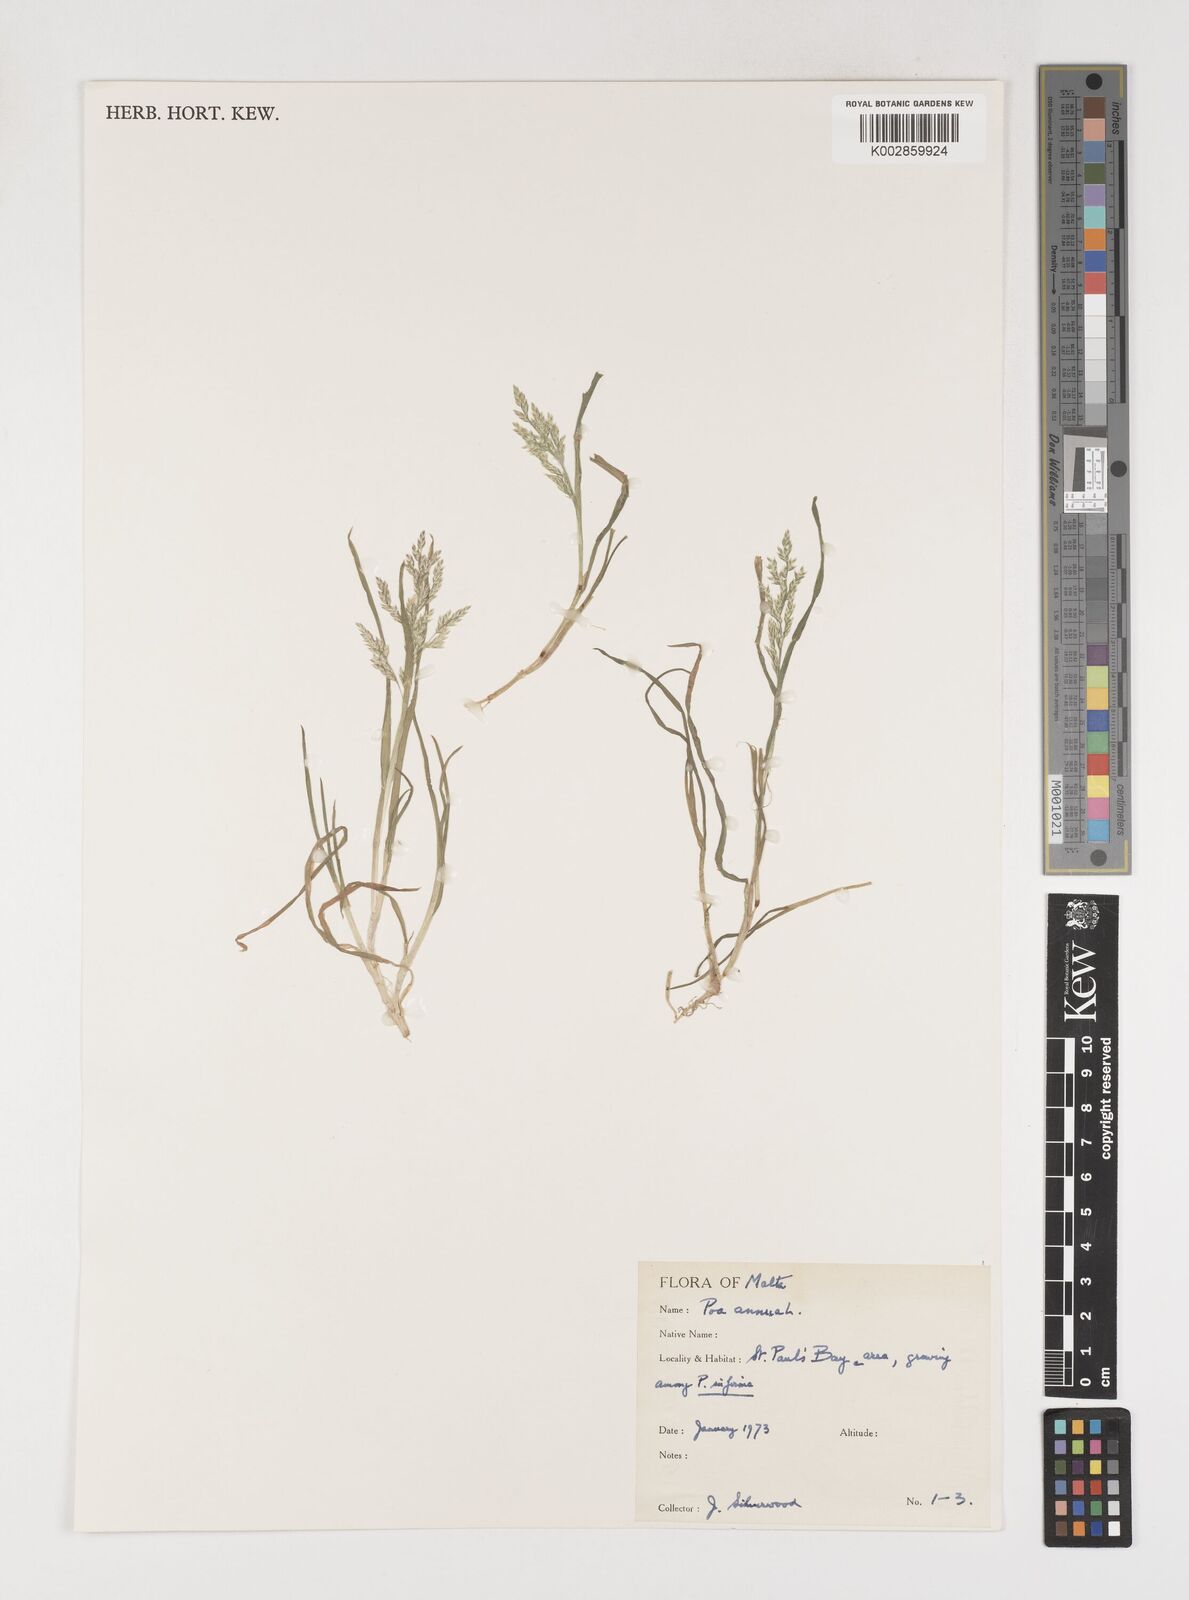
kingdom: Plantae
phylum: Tracheophyta
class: Liliopsida
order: Poales
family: Poaceae
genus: Poa
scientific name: Poa annua
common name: Annual bluegrass
